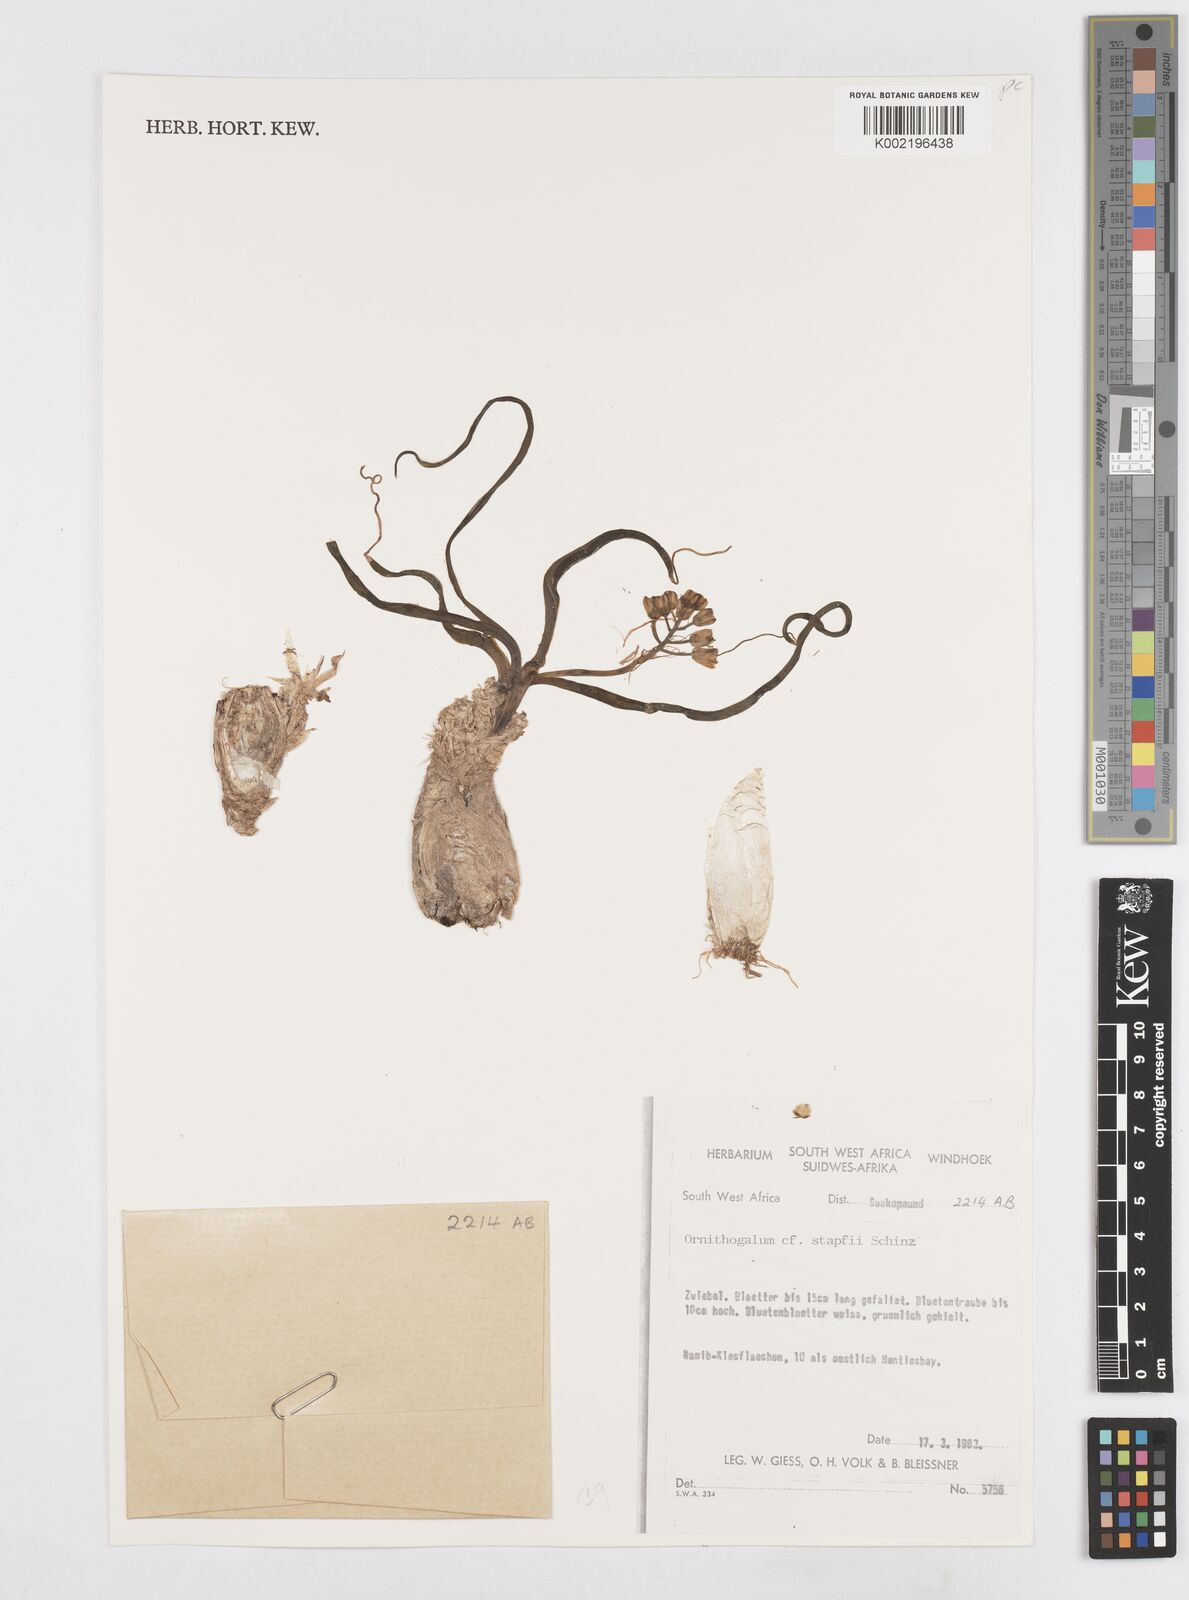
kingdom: Plantae
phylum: Tracheophyta
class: Liliopsida
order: Asparagales
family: Asparagaceae
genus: Albuca
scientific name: Albuca stapffii
